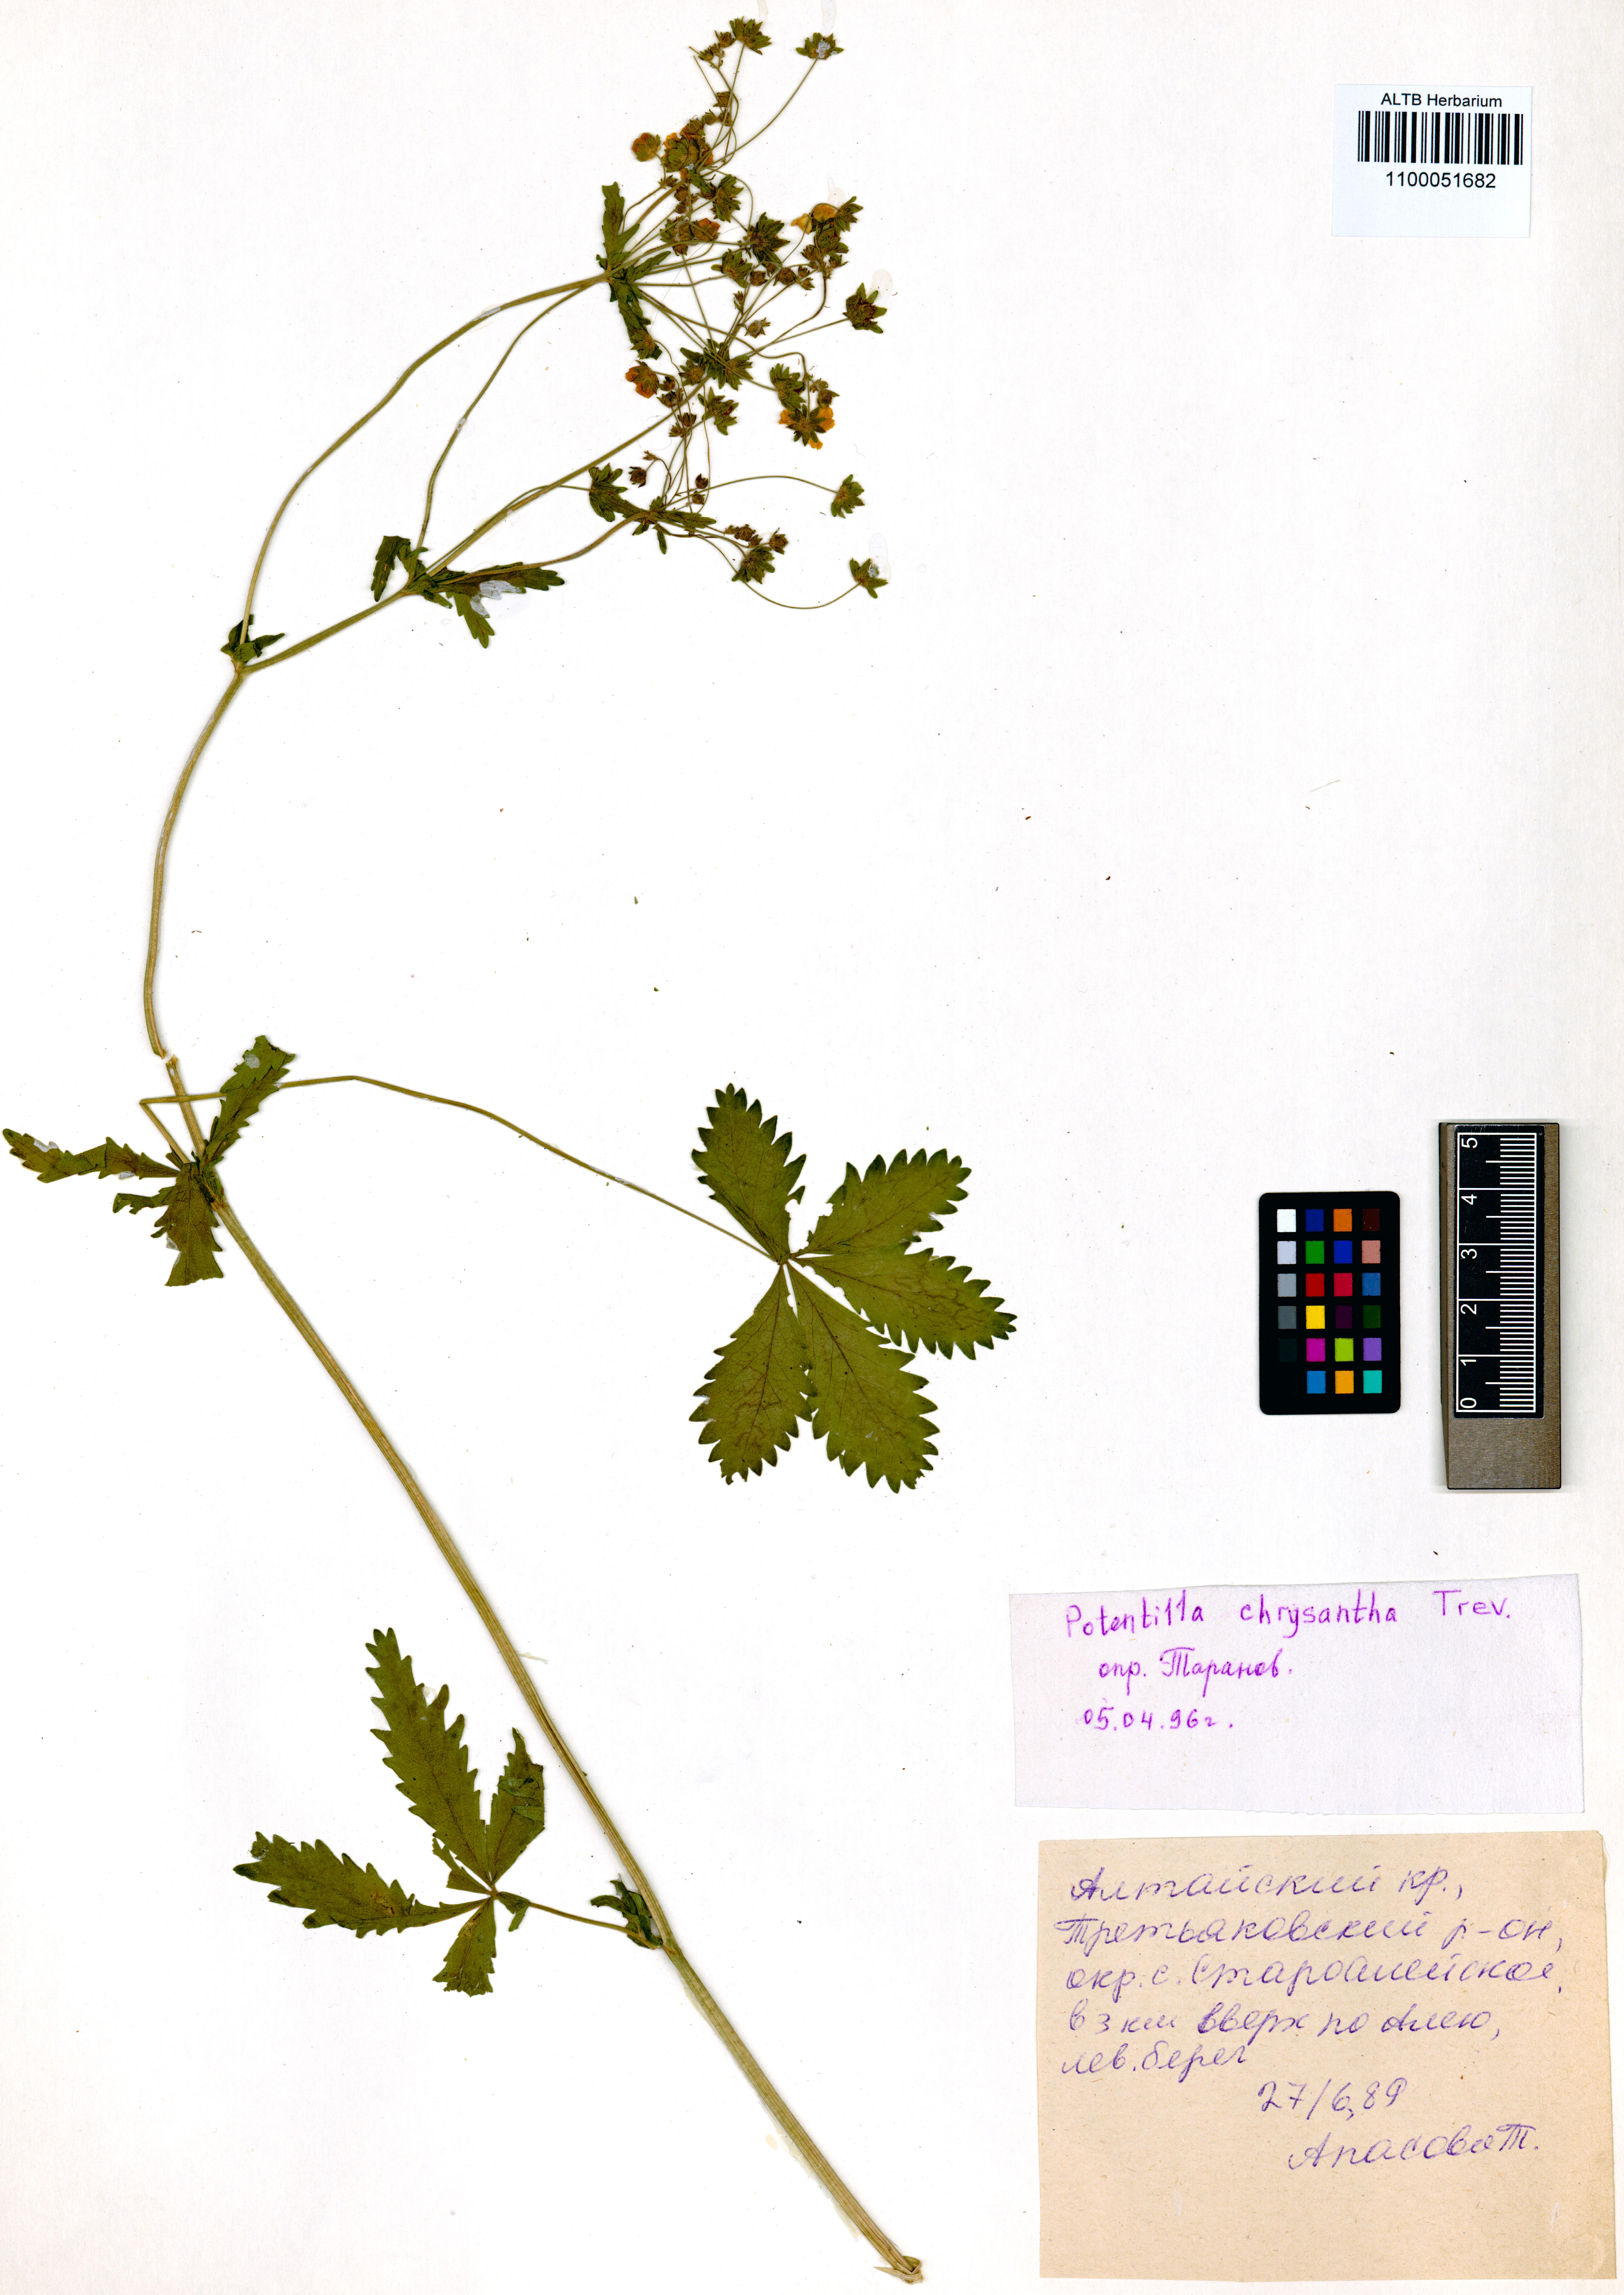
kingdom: Plantae
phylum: Tracheophyta
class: Magnoliopsida
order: Rosales
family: Rosaceae
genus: Potentilla
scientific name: Potentilla chrysantha
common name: Thuringian cinquefoil
